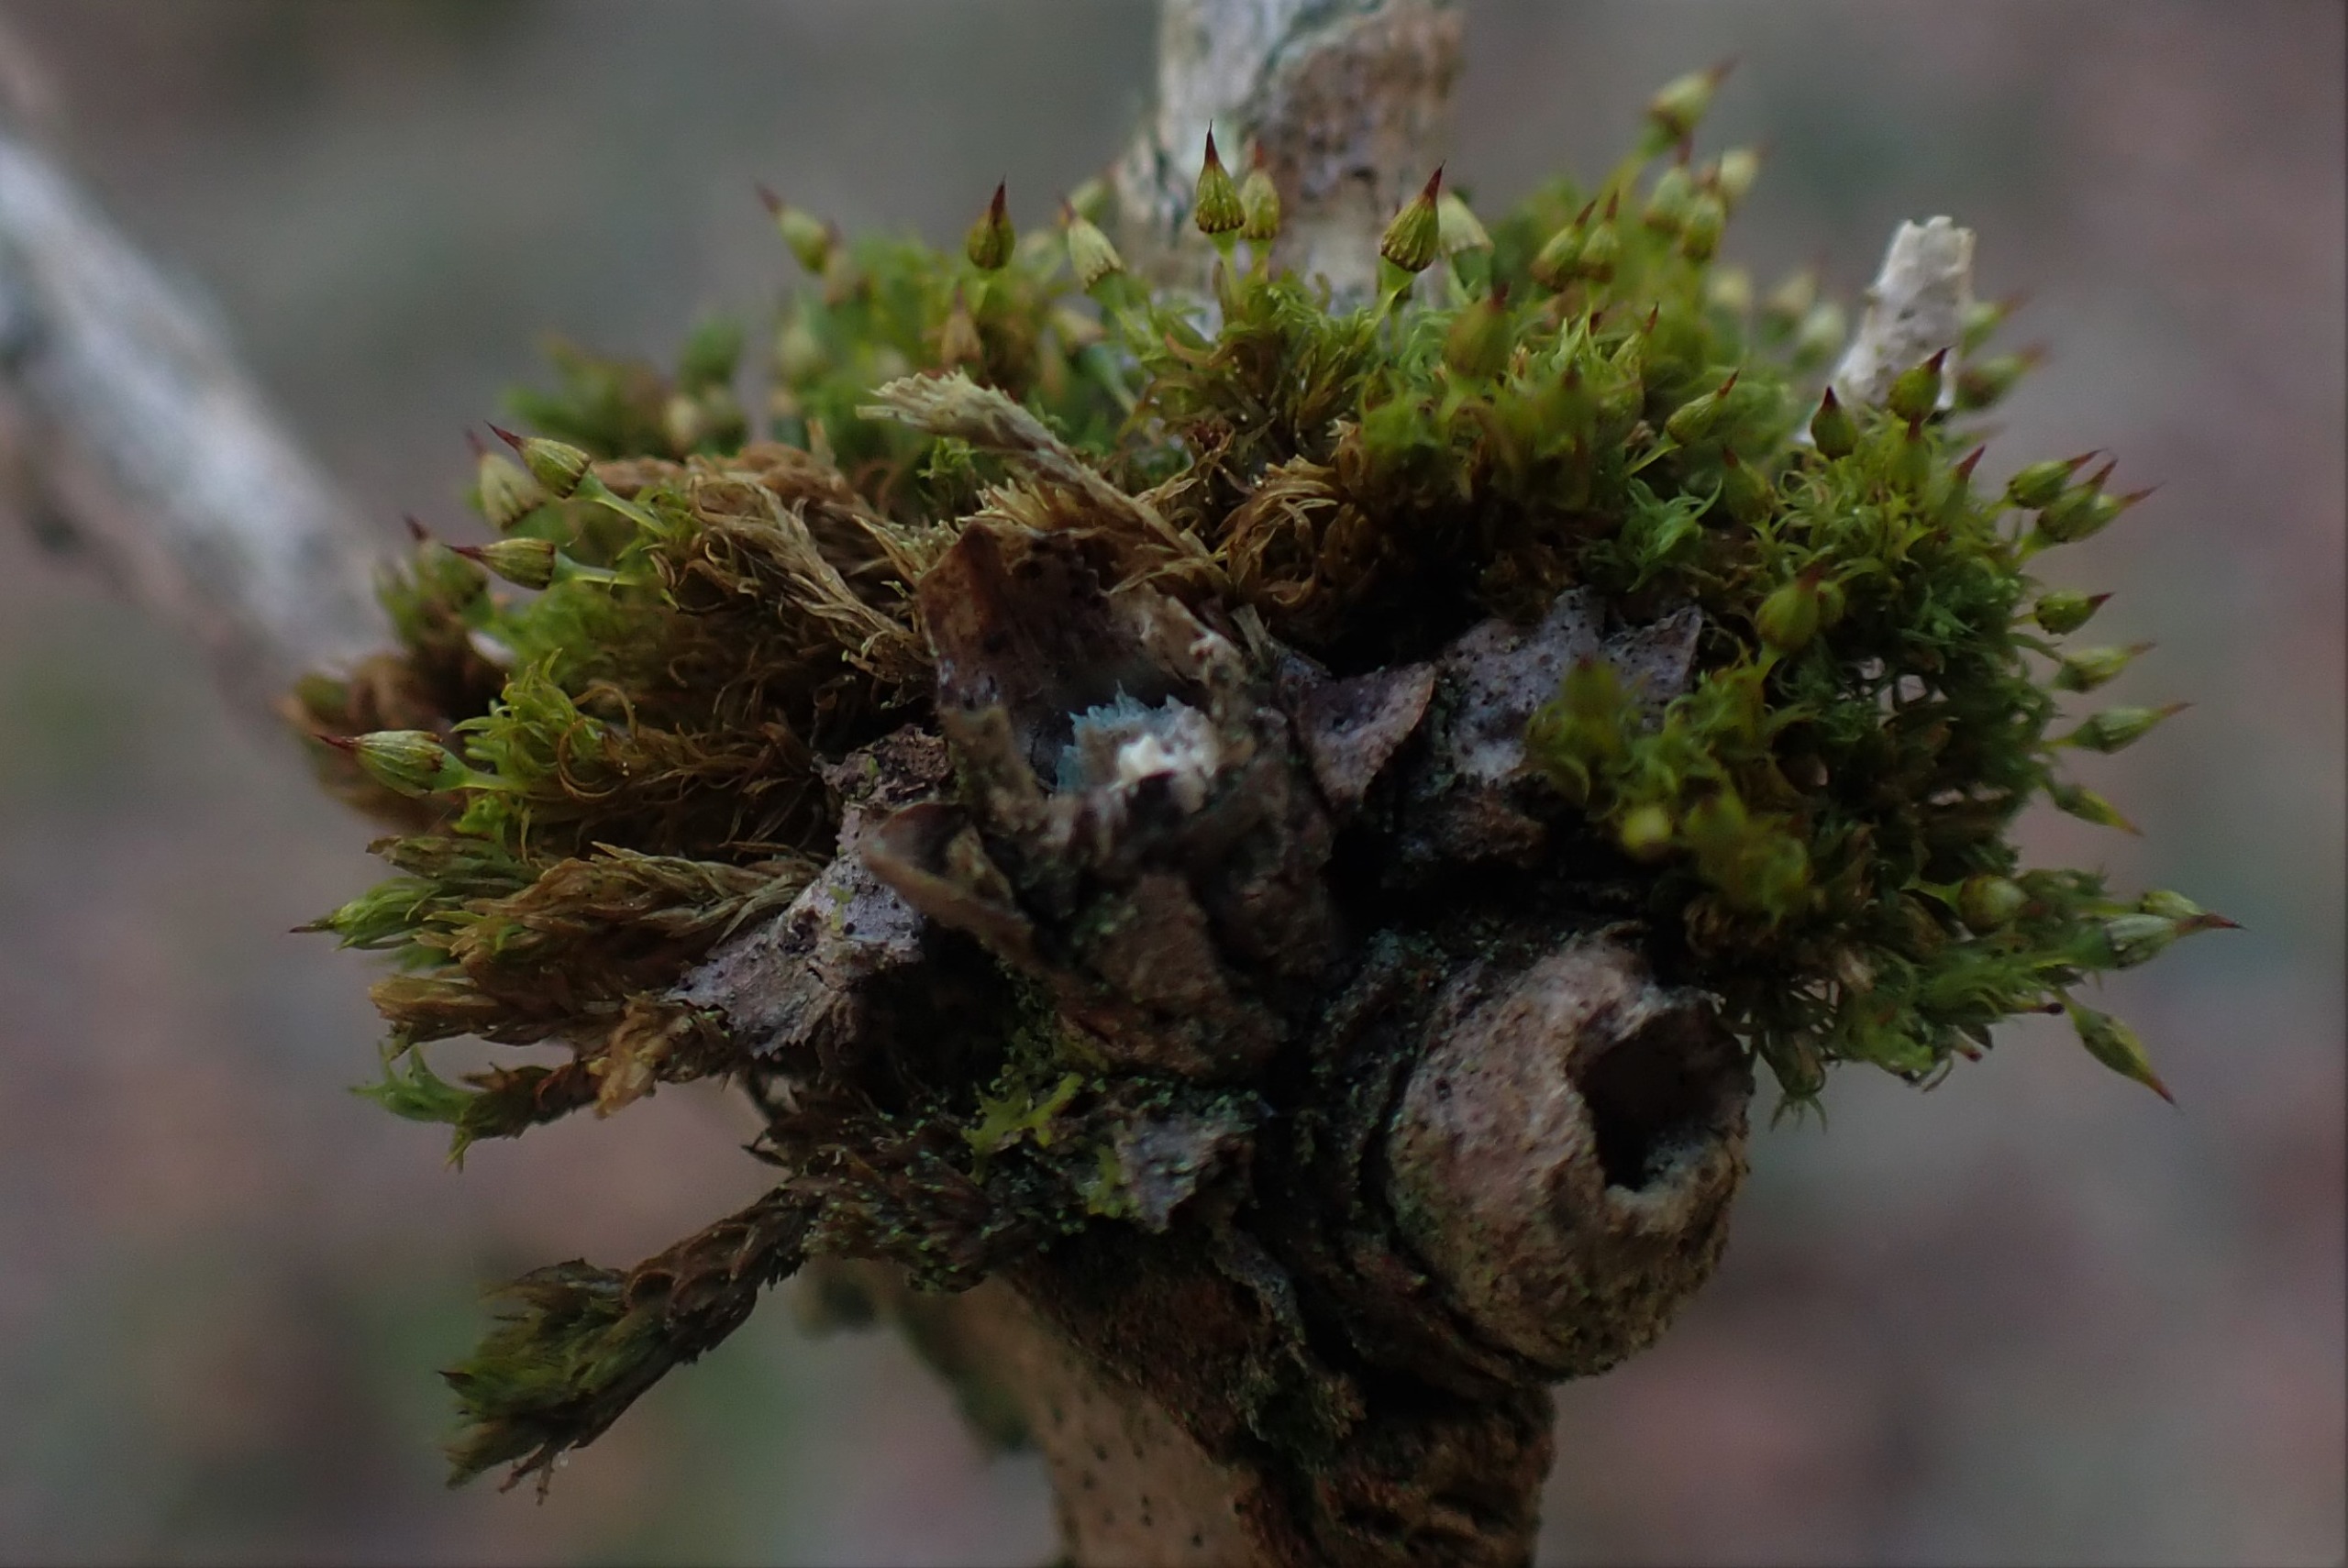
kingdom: Plantae
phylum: Bryophyta
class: Bryopsida
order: Orthotrichales
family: Orthotrichaceae
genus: Orthotrichum
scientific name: Orthotrichum pulchellum
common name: Smuk furehætte
